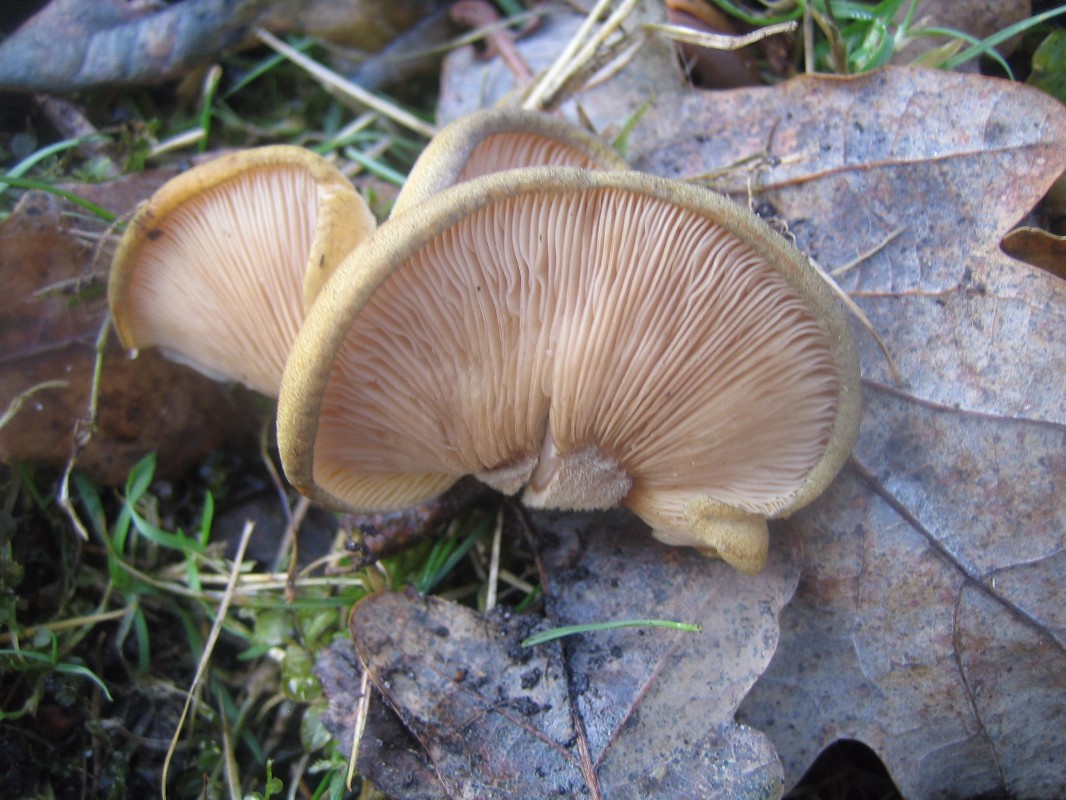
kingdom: Fungi
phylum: Basidiomycota
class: Agaricomycetes
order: Agaricales
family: Sarcomyxaceae
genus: Sarcomyxa
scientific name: Sarcomyxa serotina
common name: gummihat
